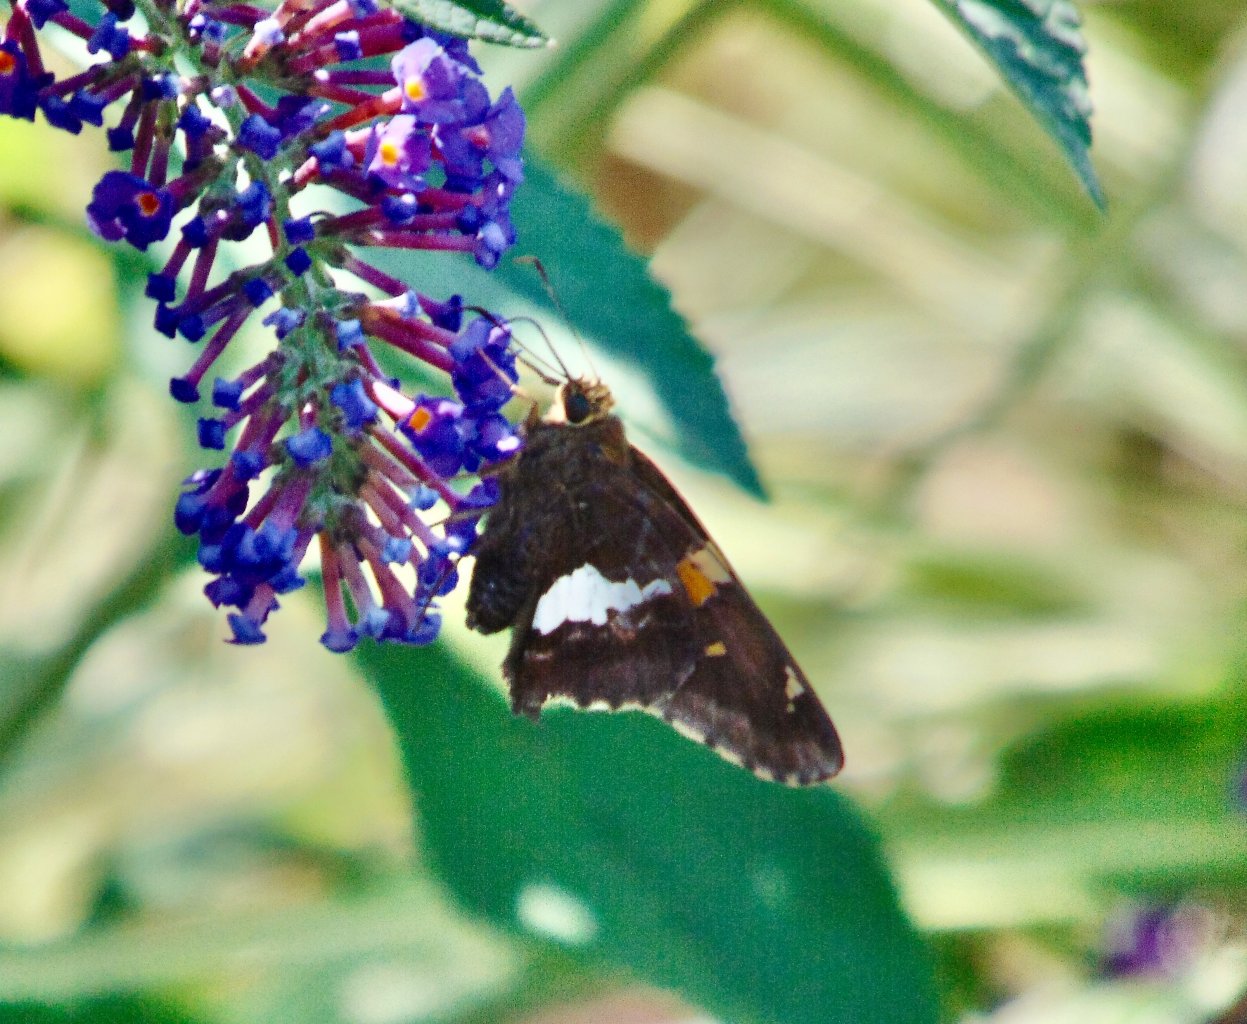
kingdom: Animalia
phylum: Arthropoda
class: Insecta
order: Lepidoptera
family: Hesperiidae
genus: Epargyreus
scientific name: Epargyreus clarus
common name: Silver-spotted Skipper
